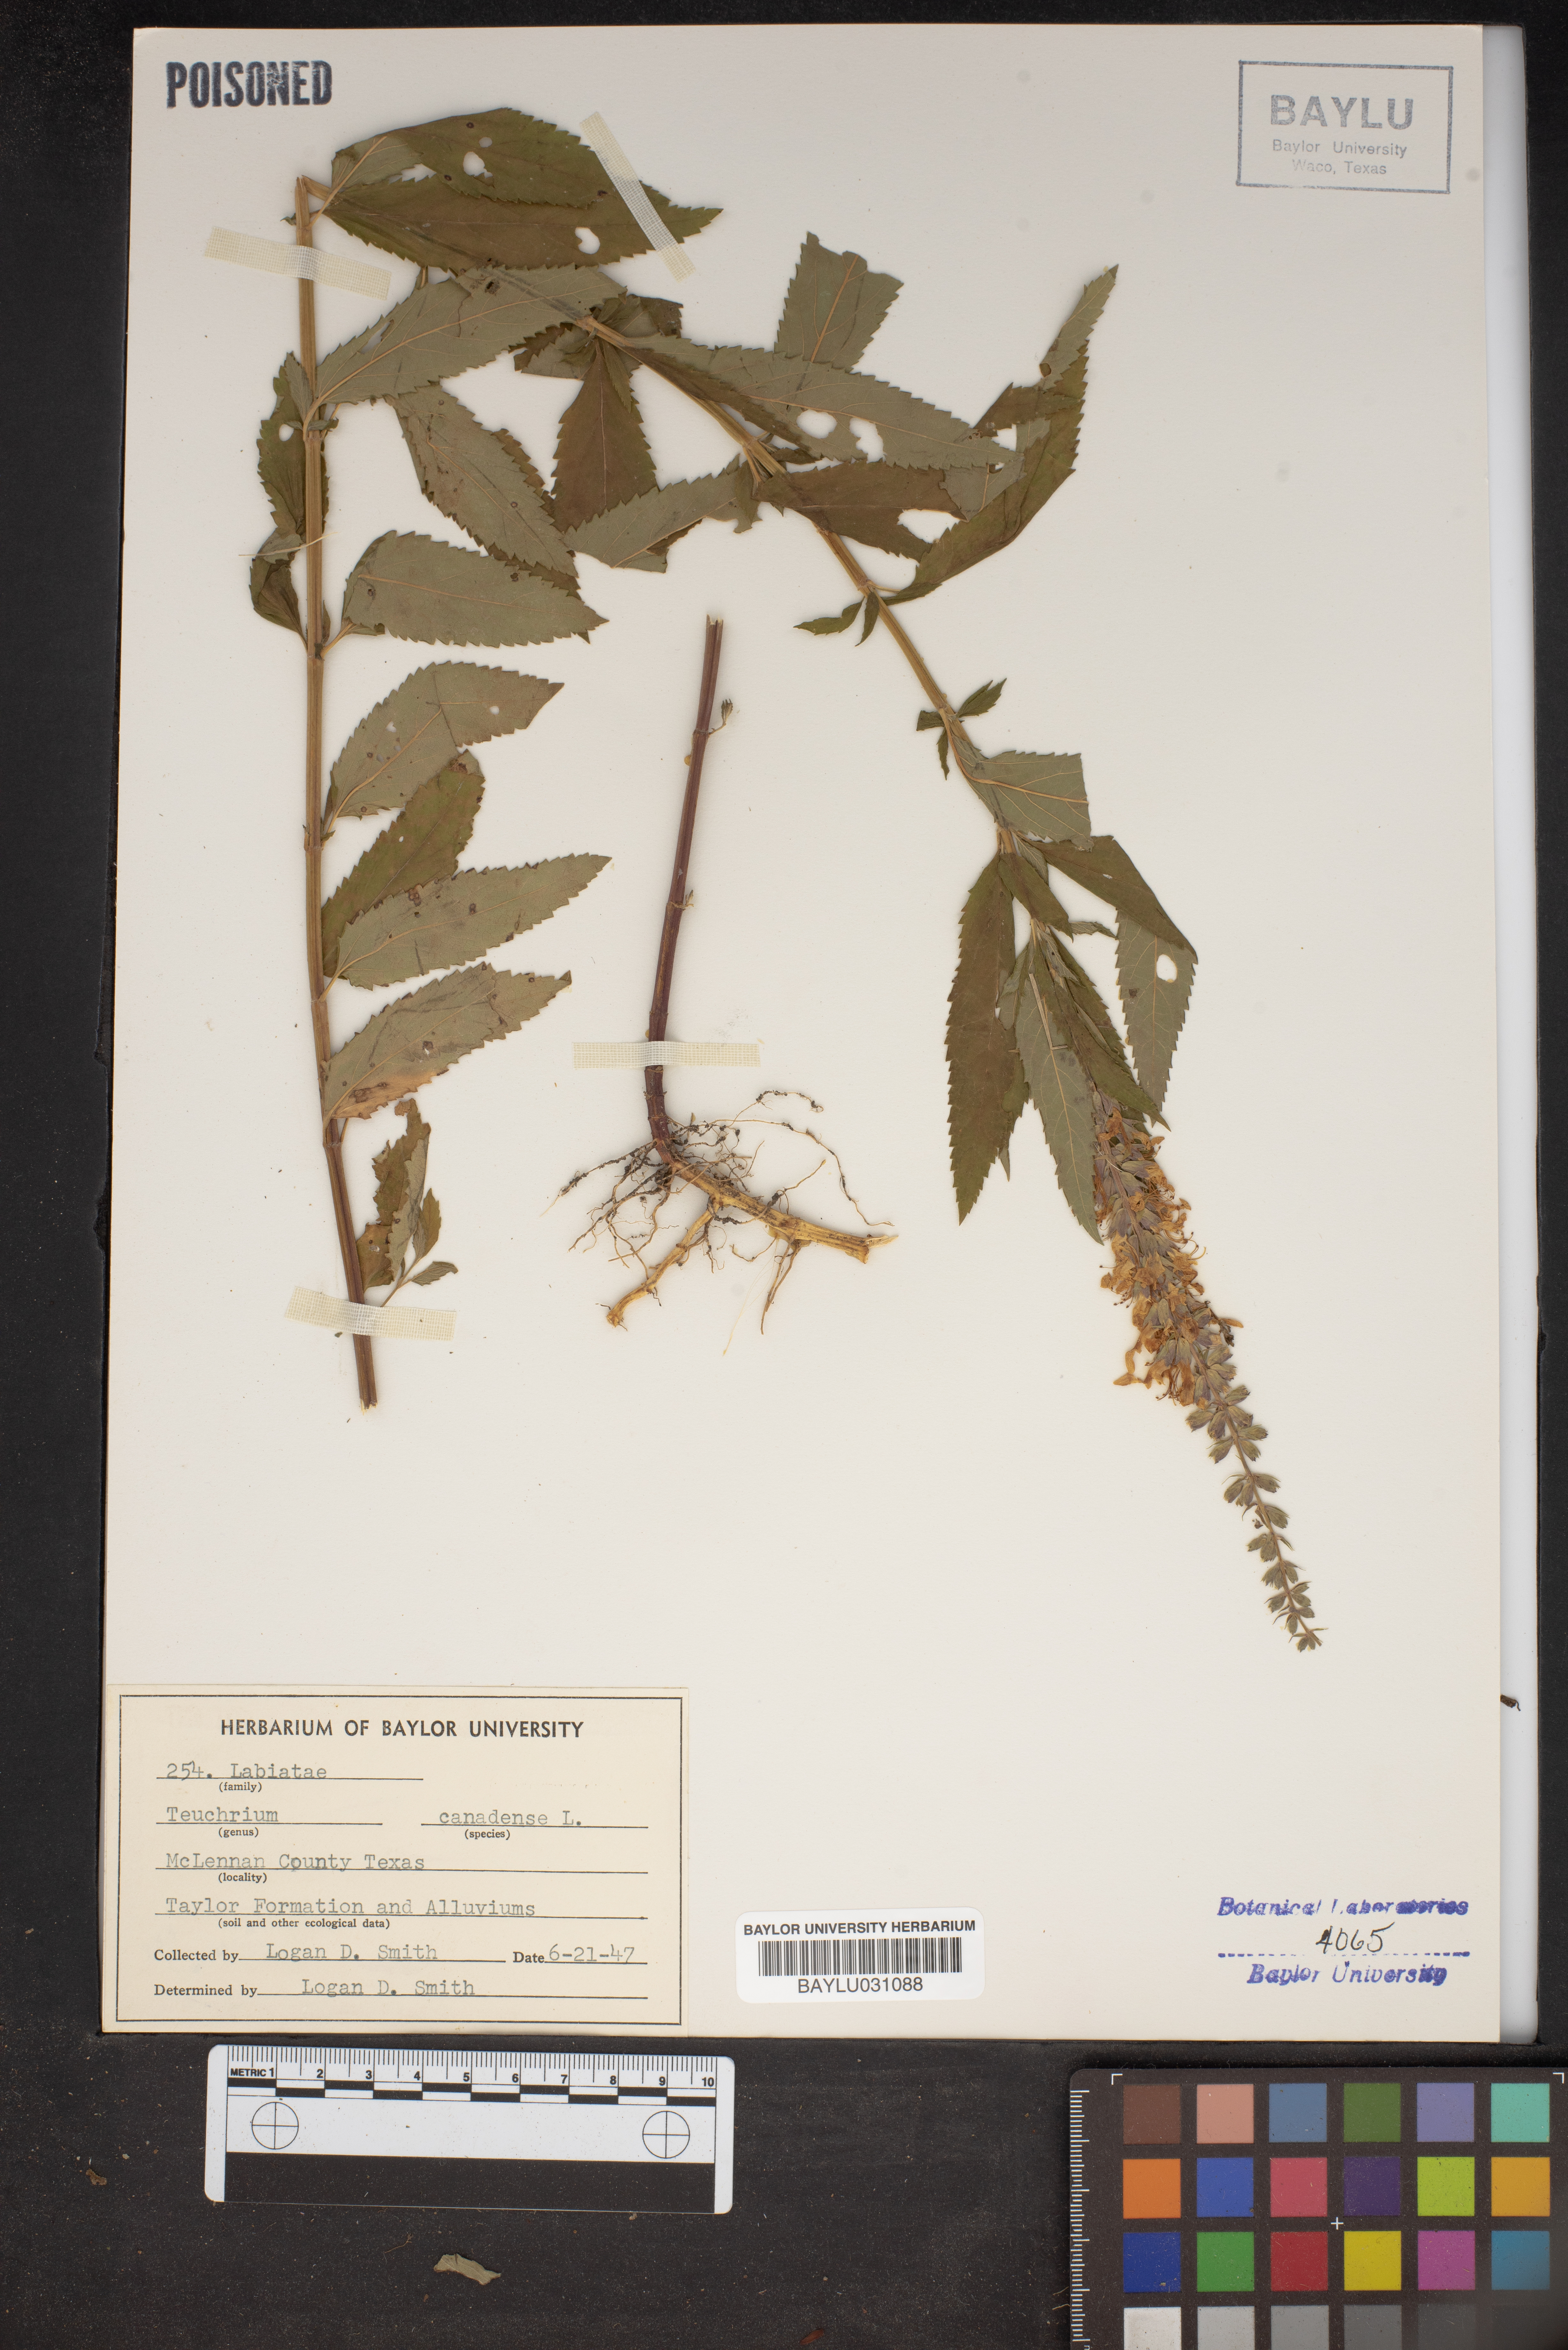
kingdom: Plantae
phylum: Tracheophyta
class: Magnoliopsida
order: Lamiales
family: Lamiaceae
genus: Teucrium
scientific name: Teucrium canadense
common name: American germander
